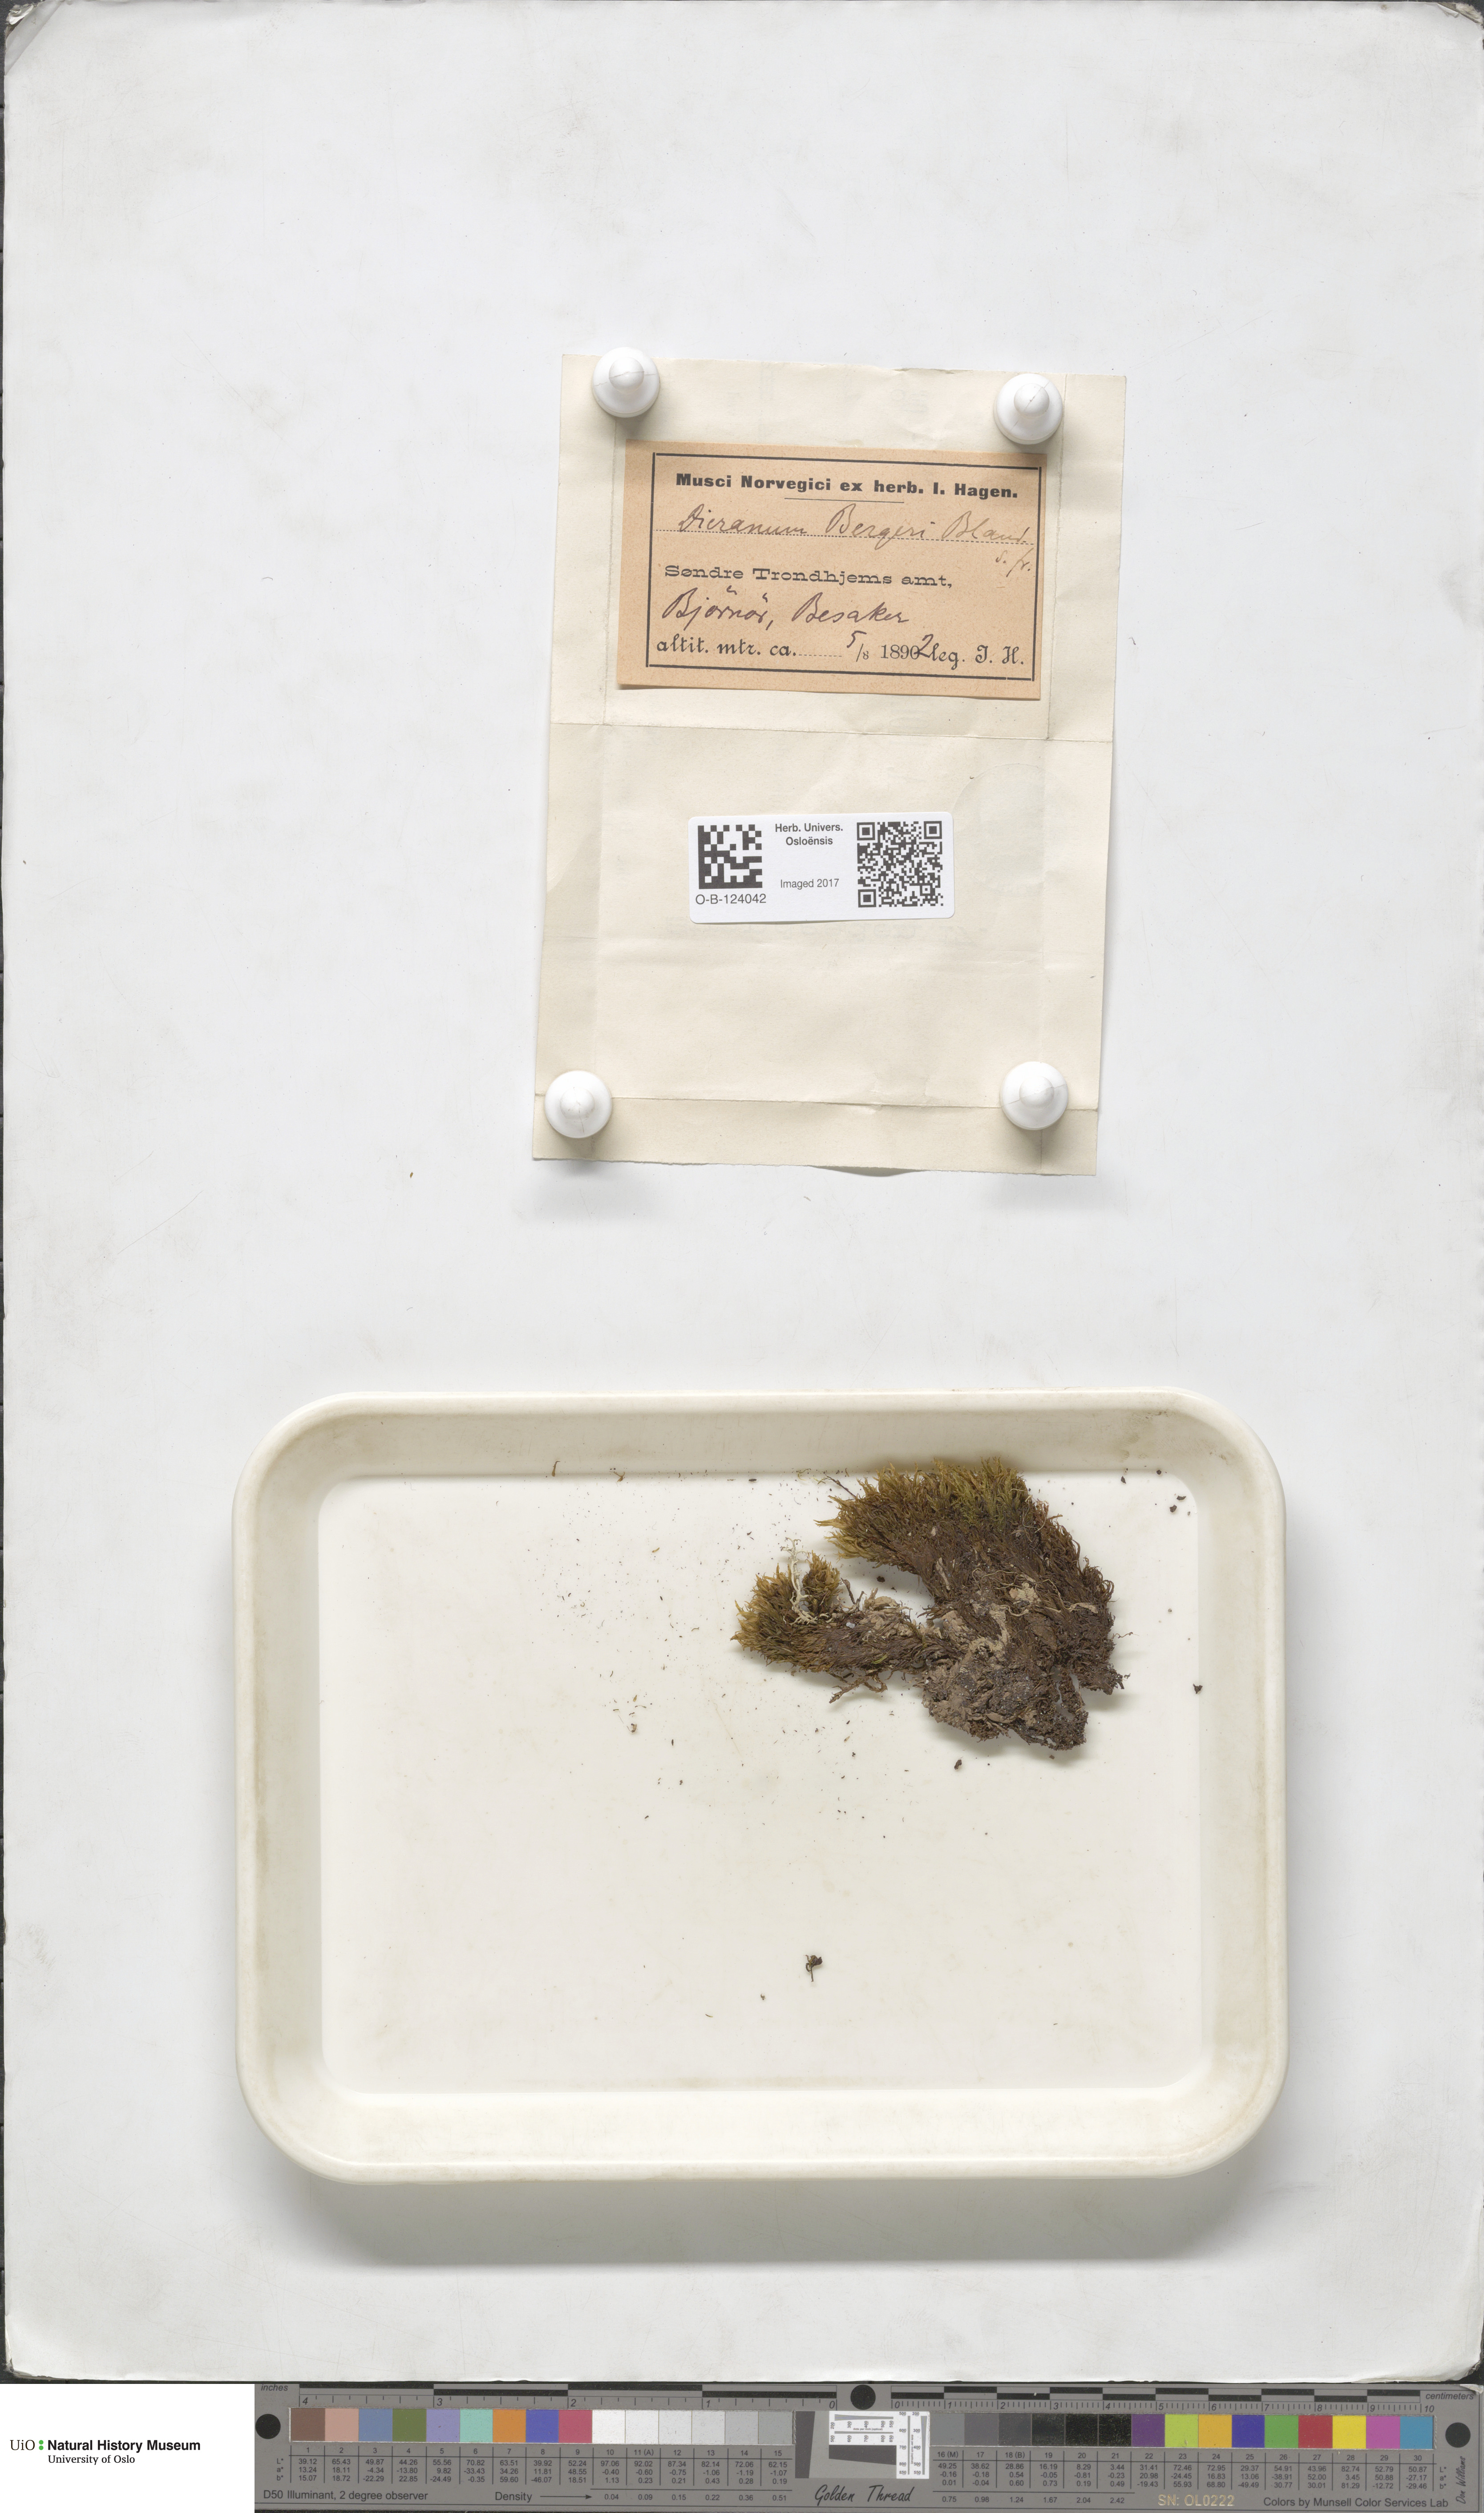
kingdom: Plantae
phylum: Bryophyta
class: Bryopsida
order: Dicranales
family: Dicranaceae
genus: Dicranum
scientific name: Dicranum undulatum
